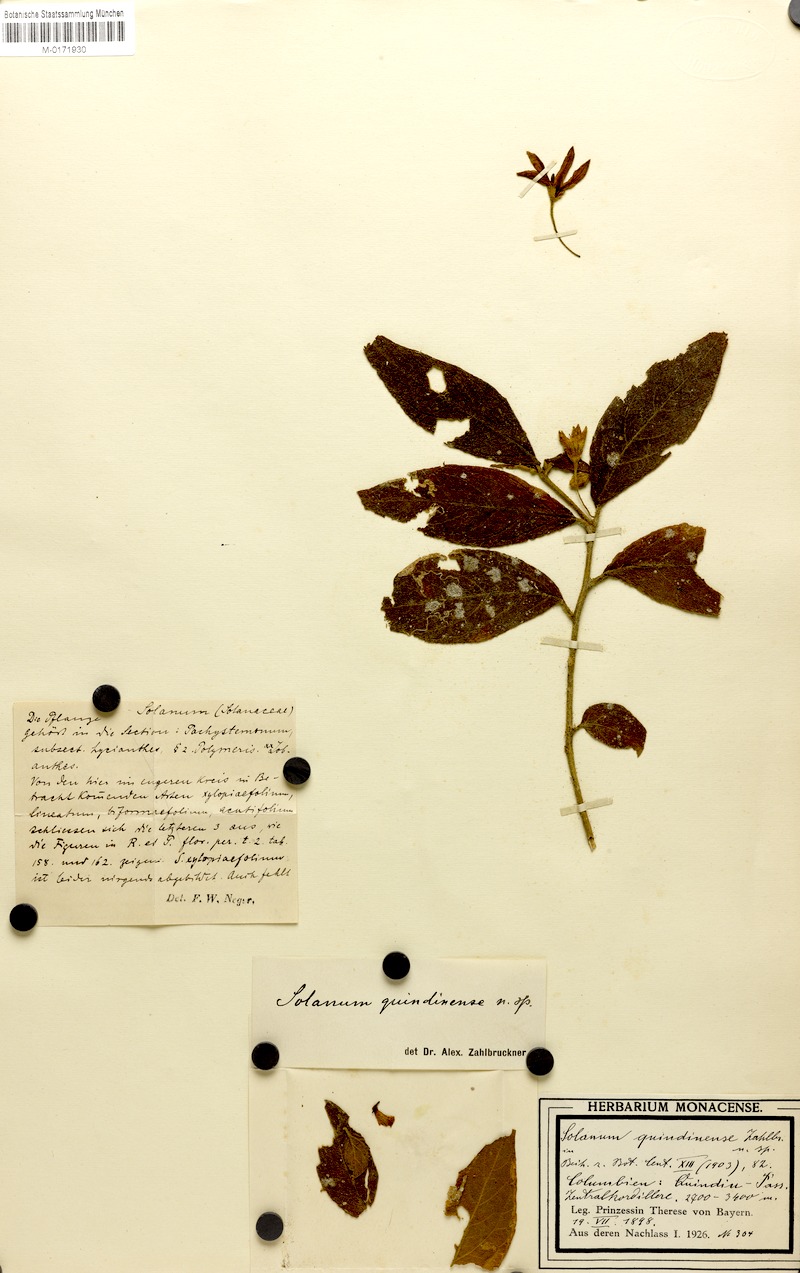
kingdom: Plantae
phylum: Tracheophyta
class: Magnoliopsida
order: Solanales
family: Solanaceae
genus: Solanum
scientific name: Solanum lasiophyllum
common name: Flannelbush
